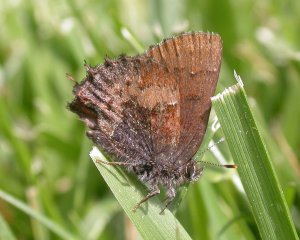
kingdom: Animalia
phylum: Arthropoda
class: Insecta
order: Lepidoptera
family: Lycaenidae
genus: Incisalia
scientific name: Incisalia henrici
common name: Henry's Elfin
